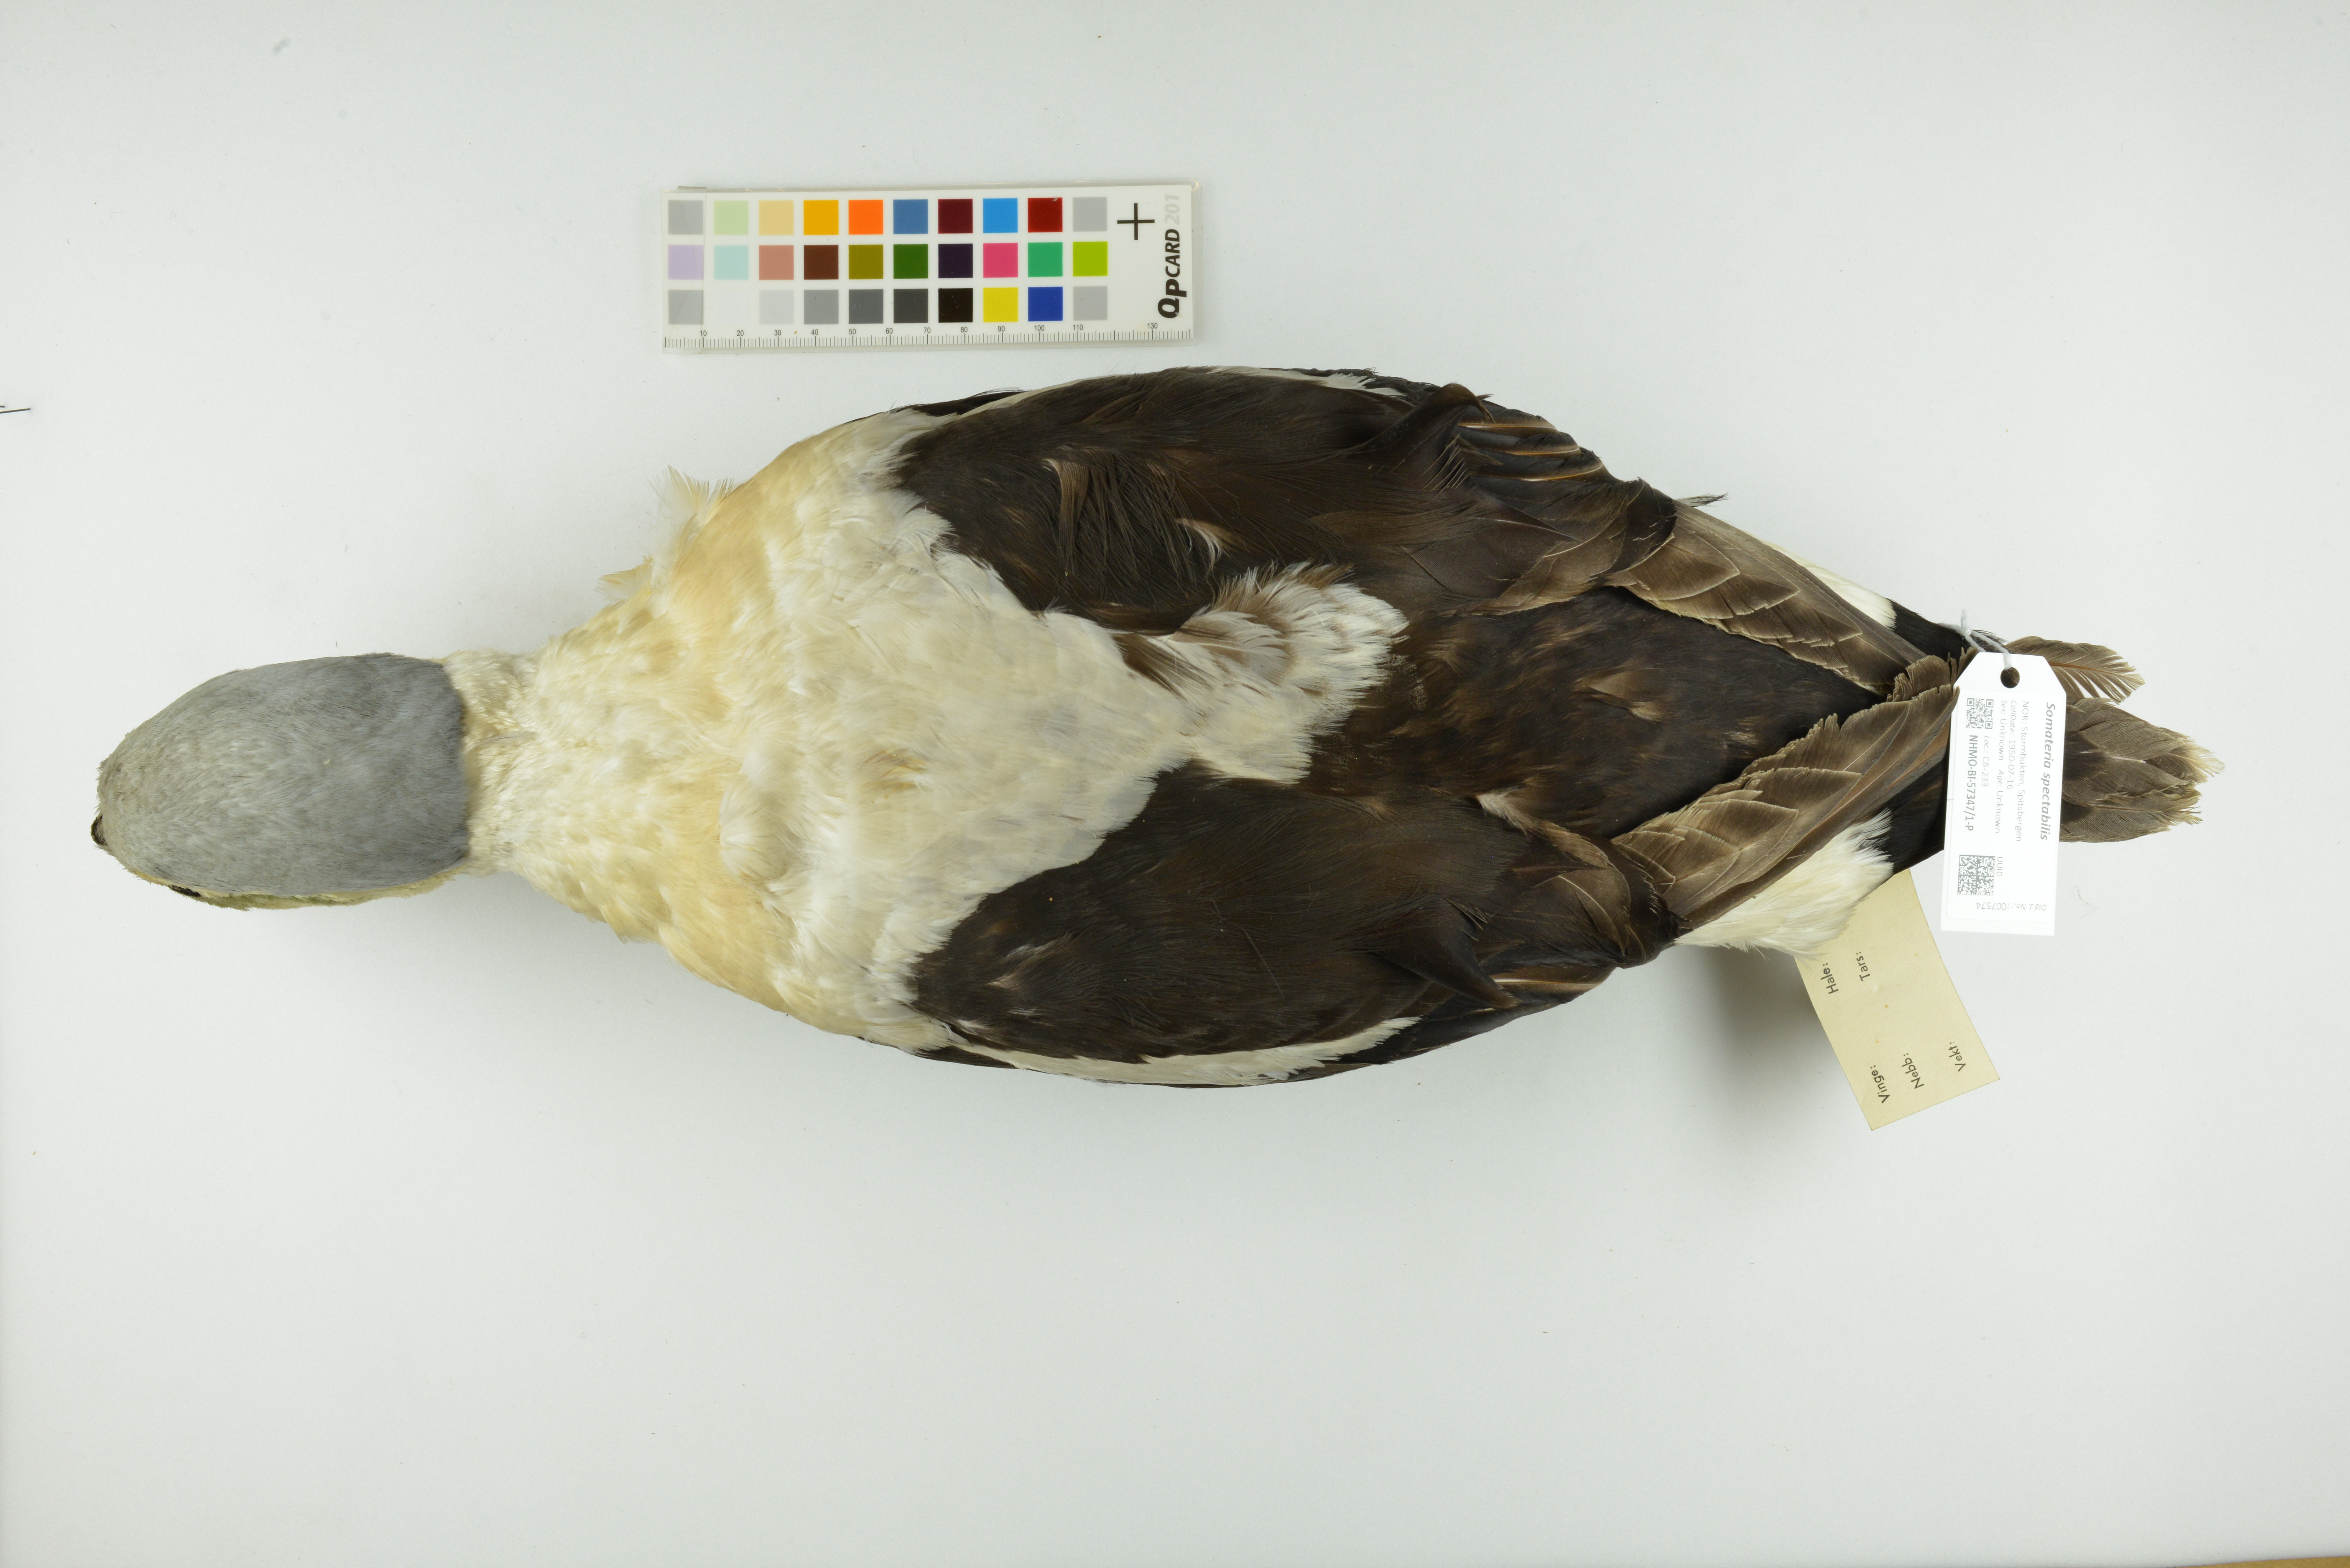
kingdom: Animalia
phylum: Chordata
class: Aves
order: Anseriformes
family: Anatidae
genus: Somateria
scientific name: Somateria spectabilis
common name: King eider
